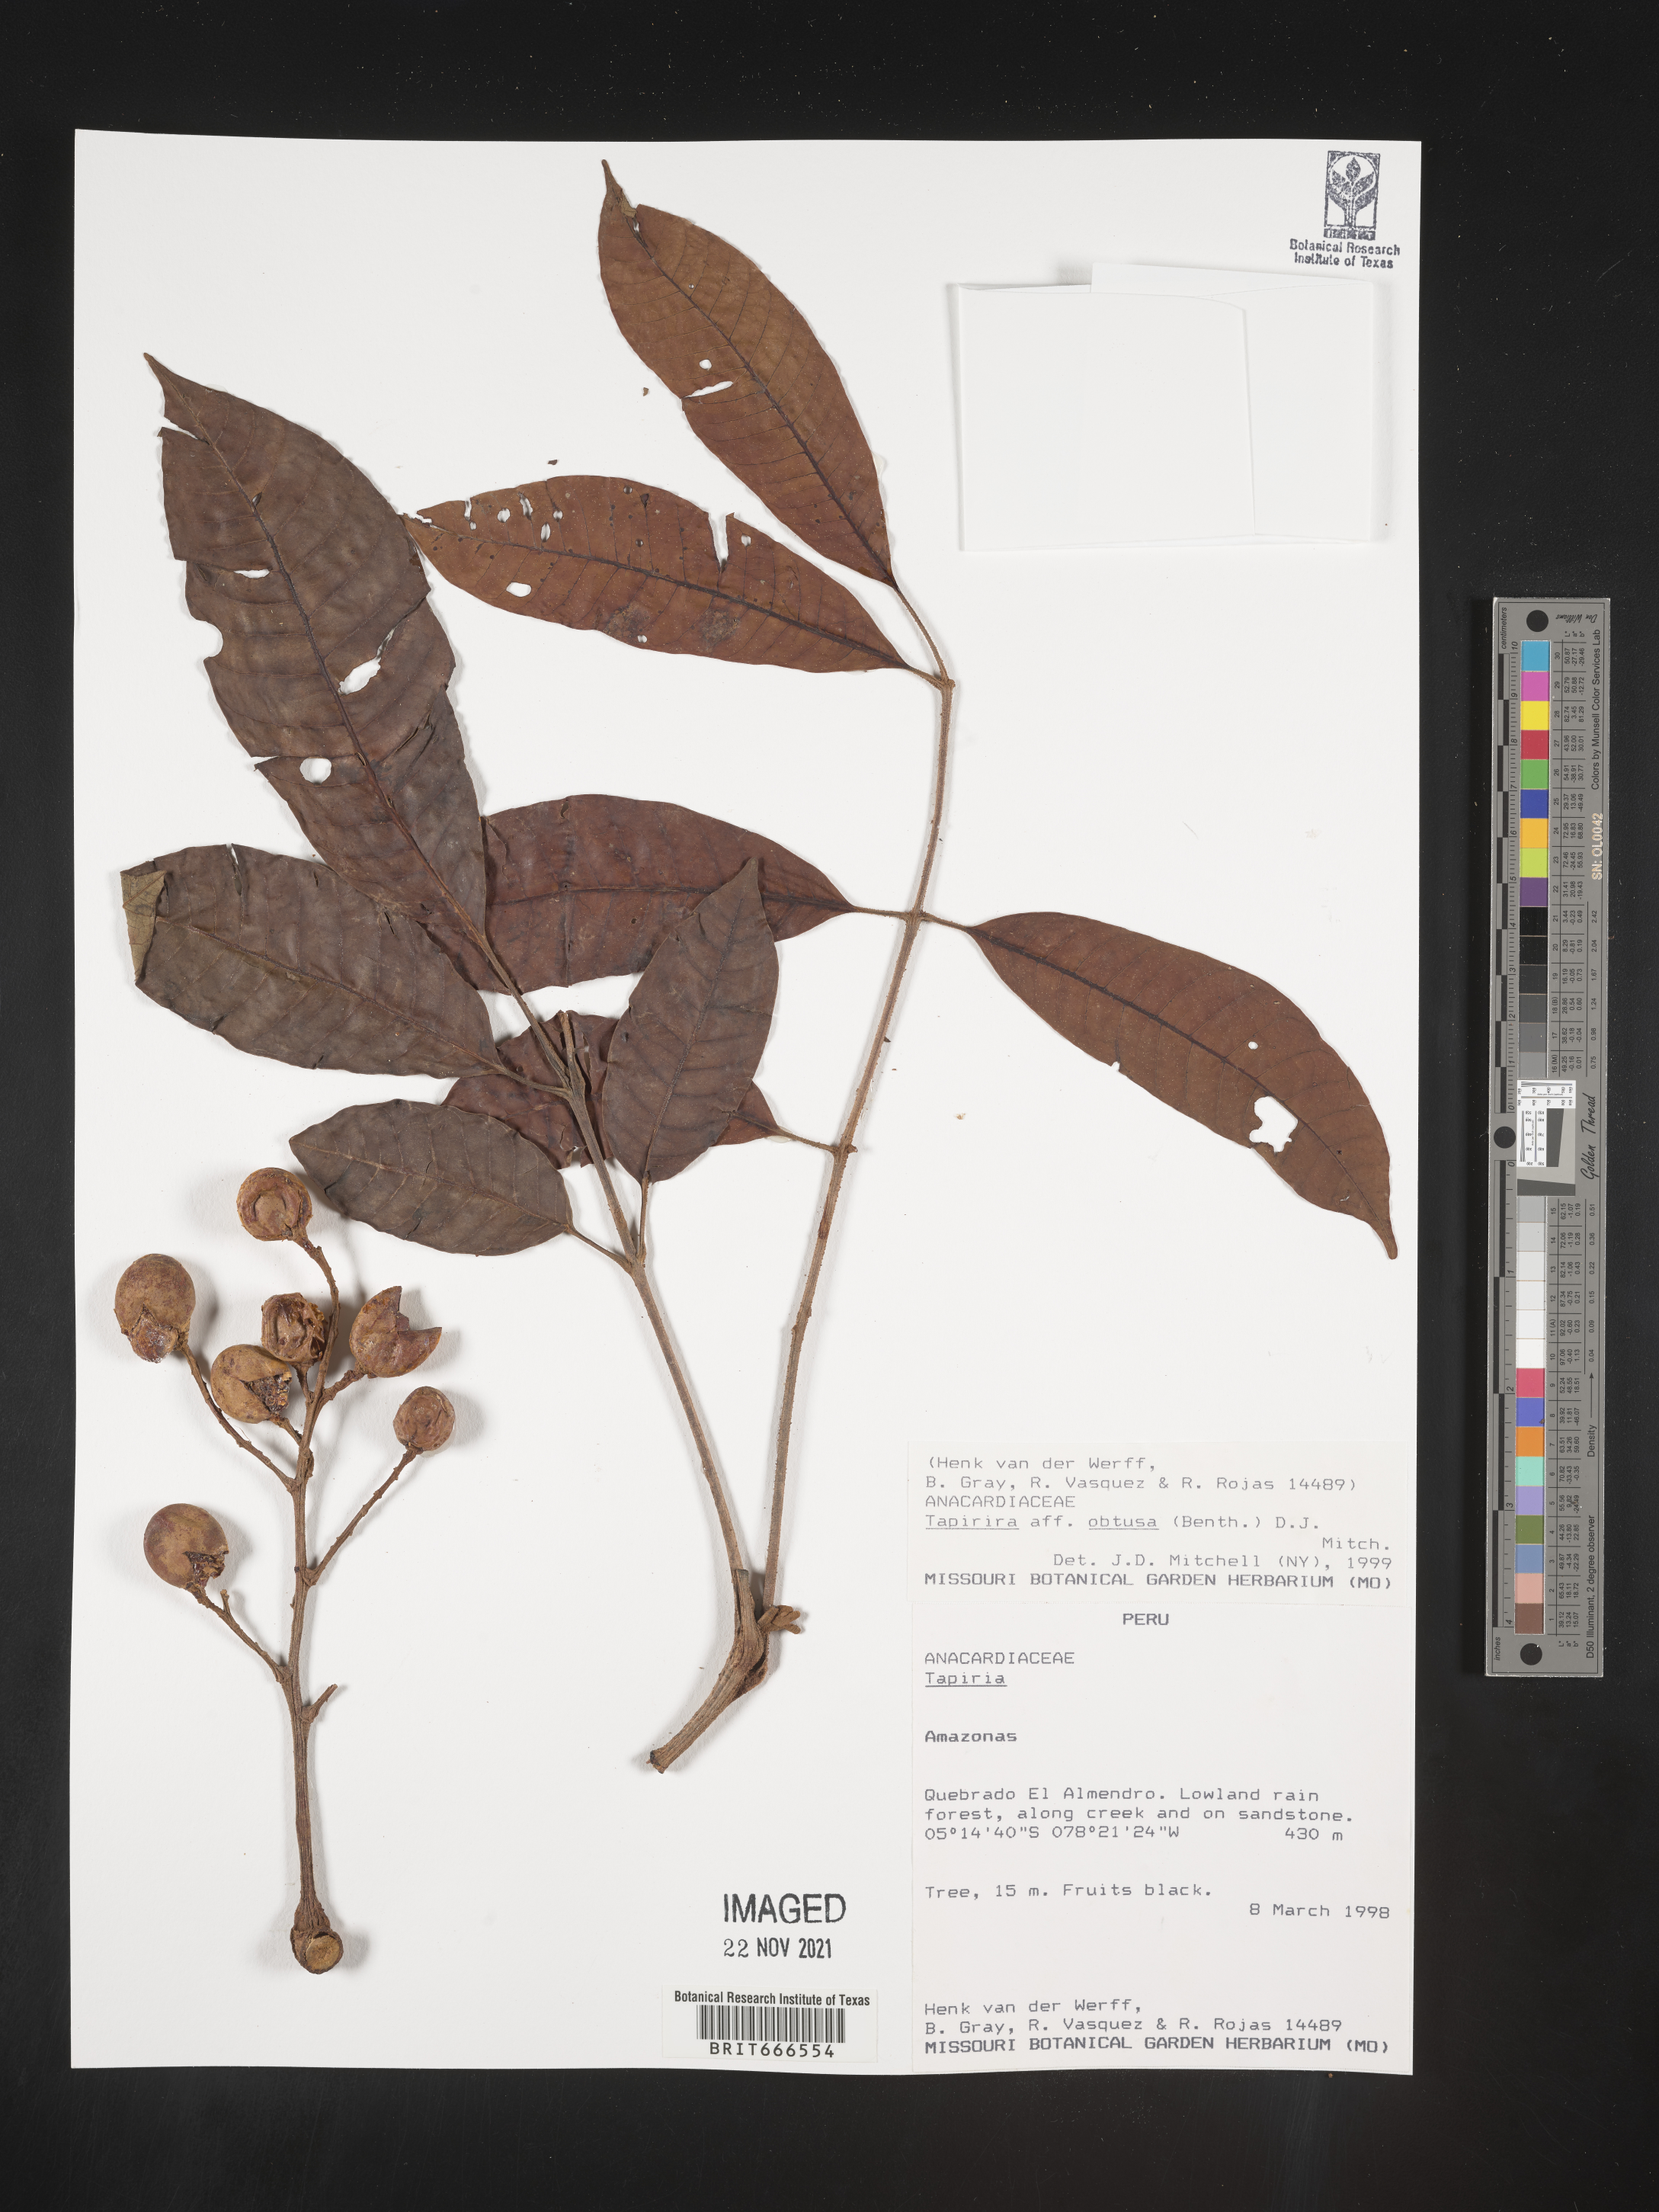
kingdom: Plantae
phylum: Tracheophyta
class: Magnoliopsida
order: Sapindales
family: Anacardiaceae
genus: Tapirira
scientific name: Tapirira
